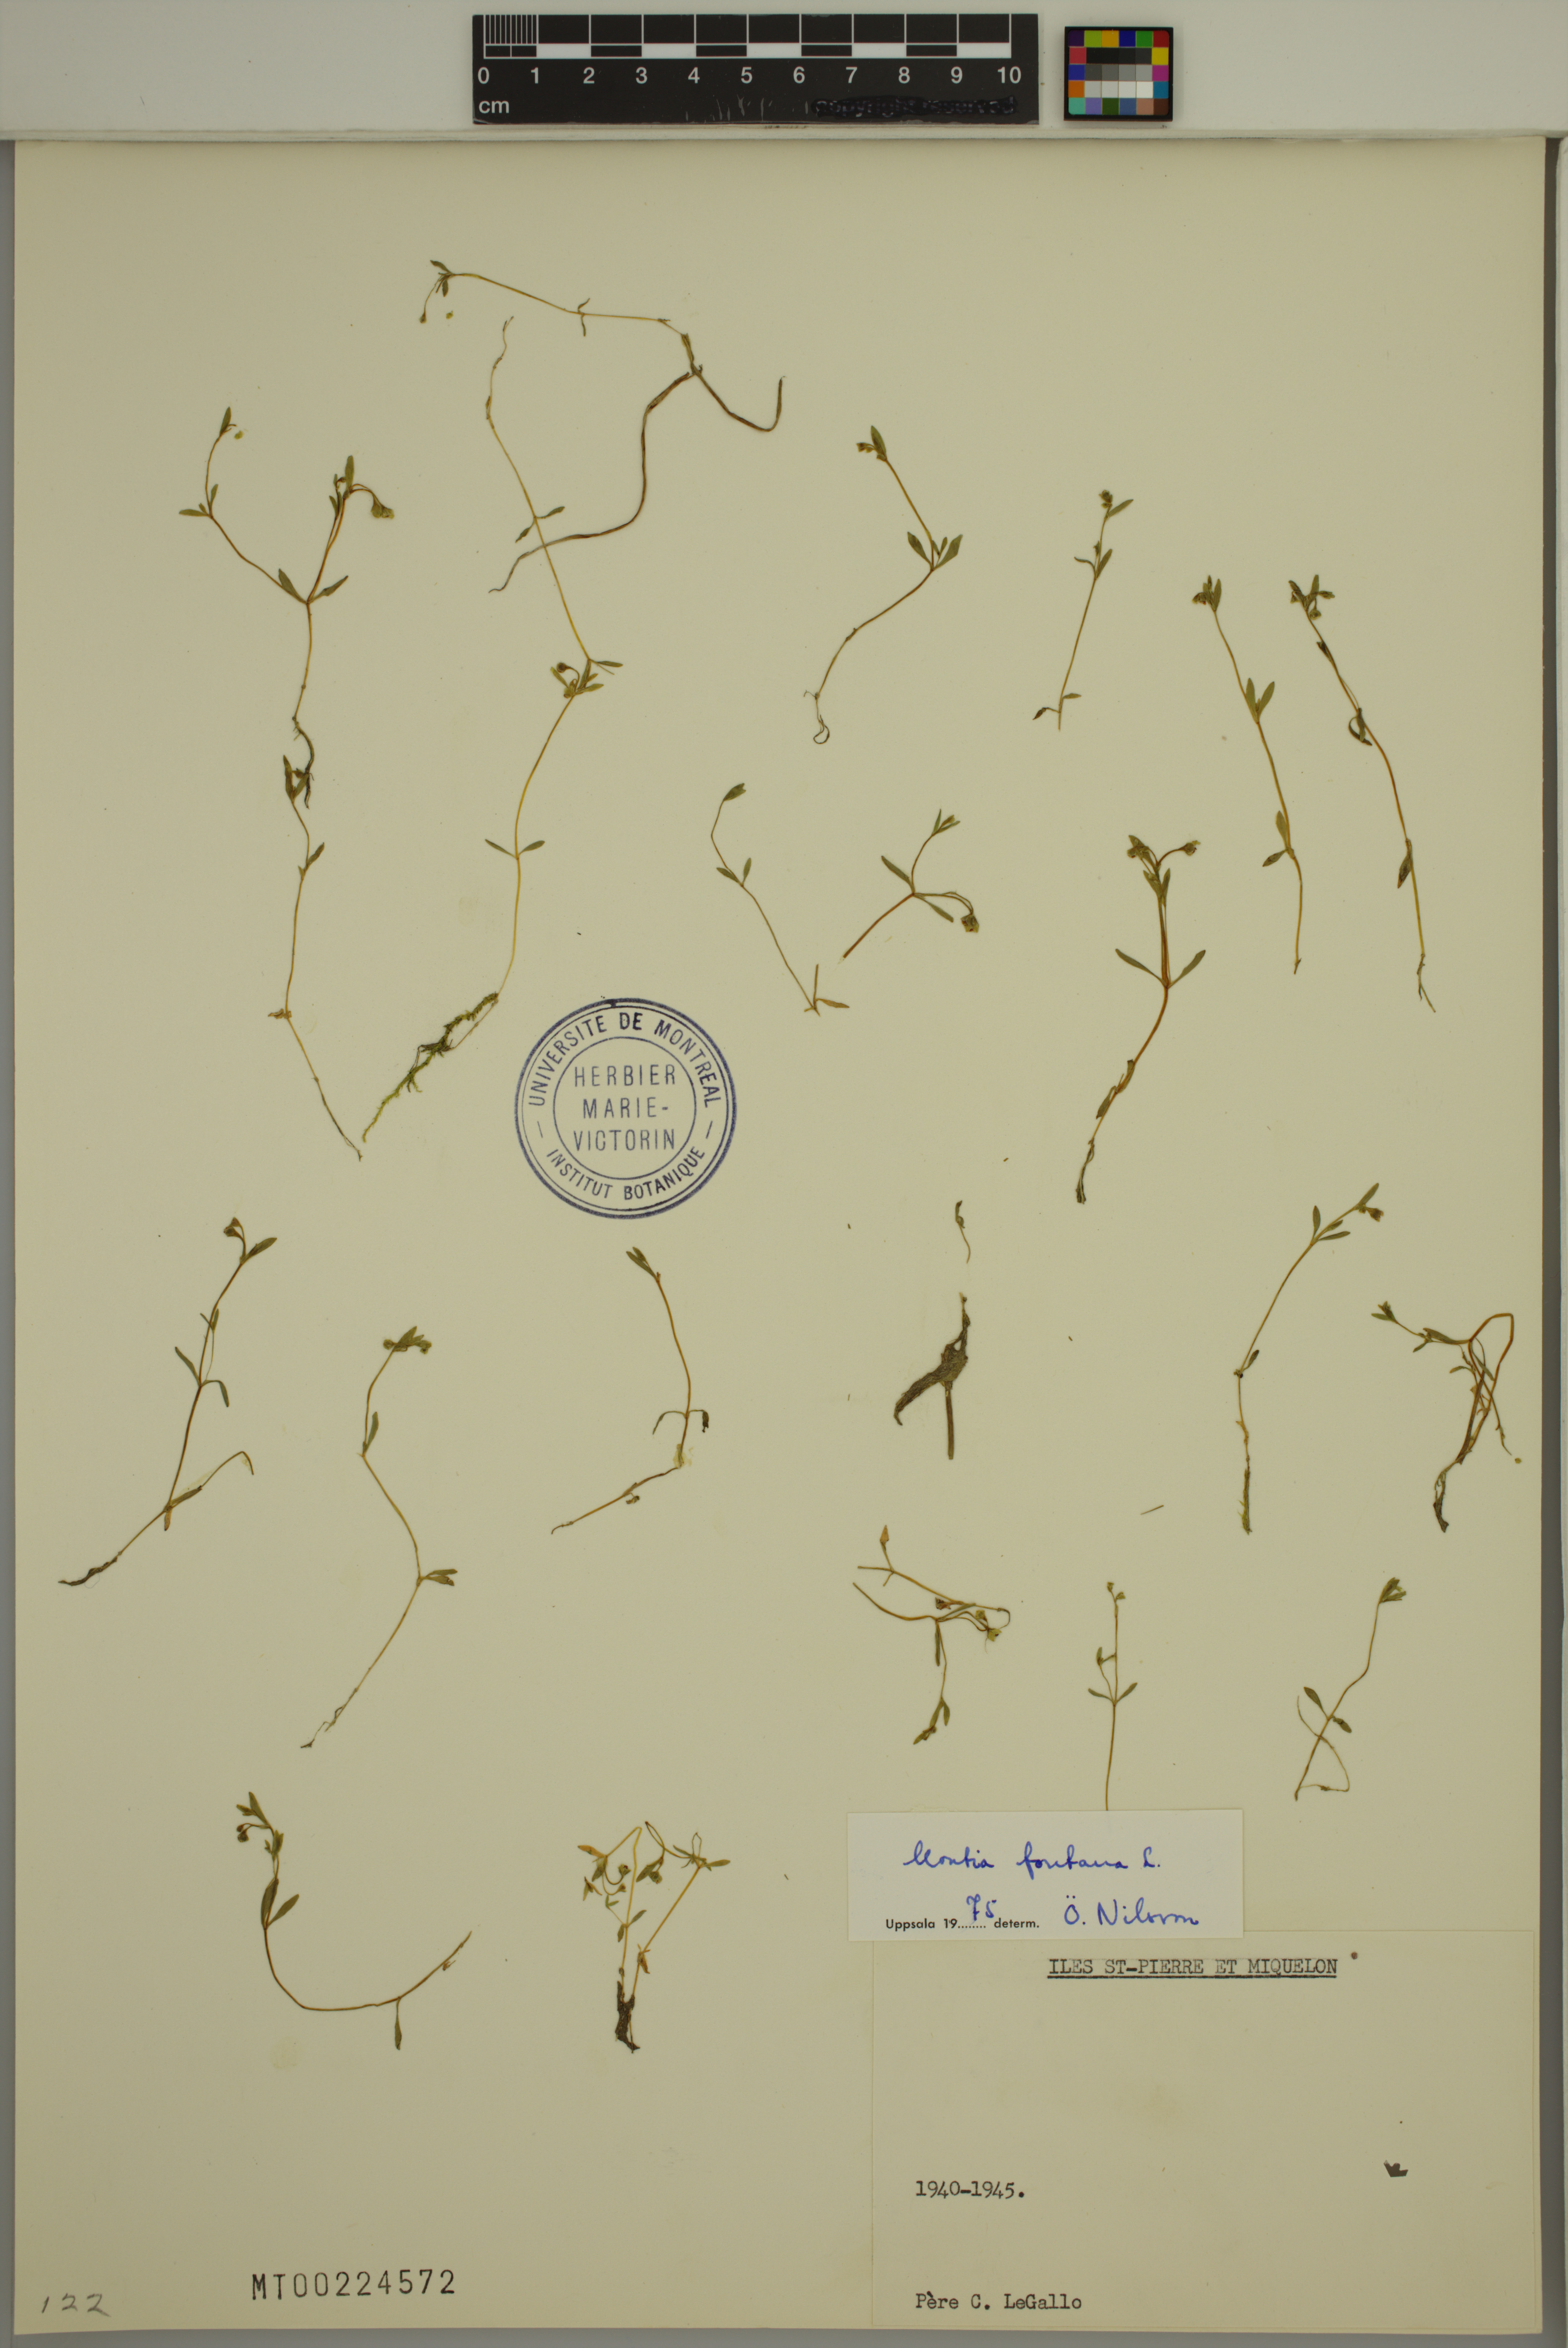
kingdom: Plantae
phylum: Tracheophyta
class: Magnoliopsida
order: Caryophyllales
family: Montiaceae
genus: Montia
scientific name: Montia fontana
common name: Blinks
